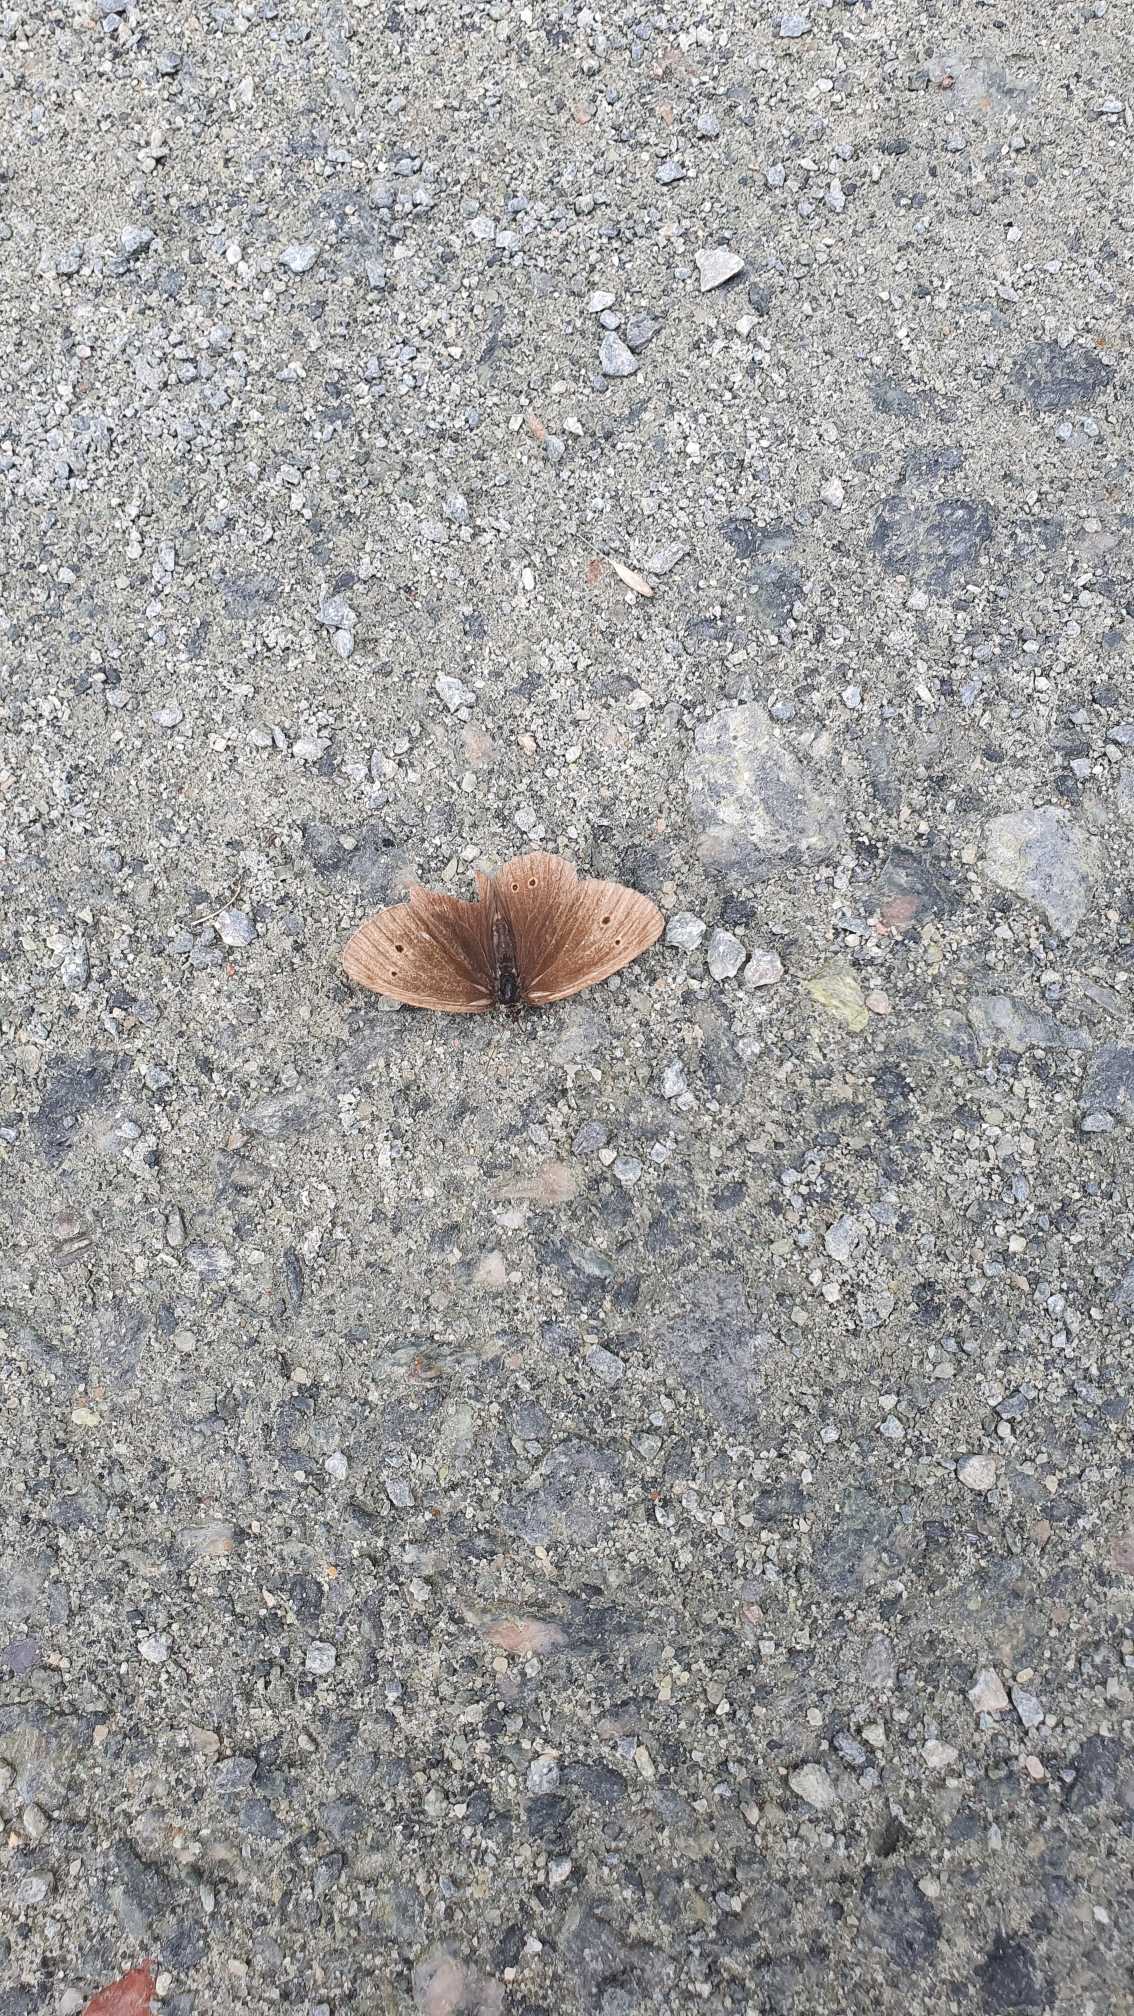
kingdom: Animalia
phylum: Arthropoda
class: Insecta
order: Lepidoptera
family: Nymphalidae
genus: Aphantopus
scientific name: Aphantopus hyperantus
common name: Engrandøje
